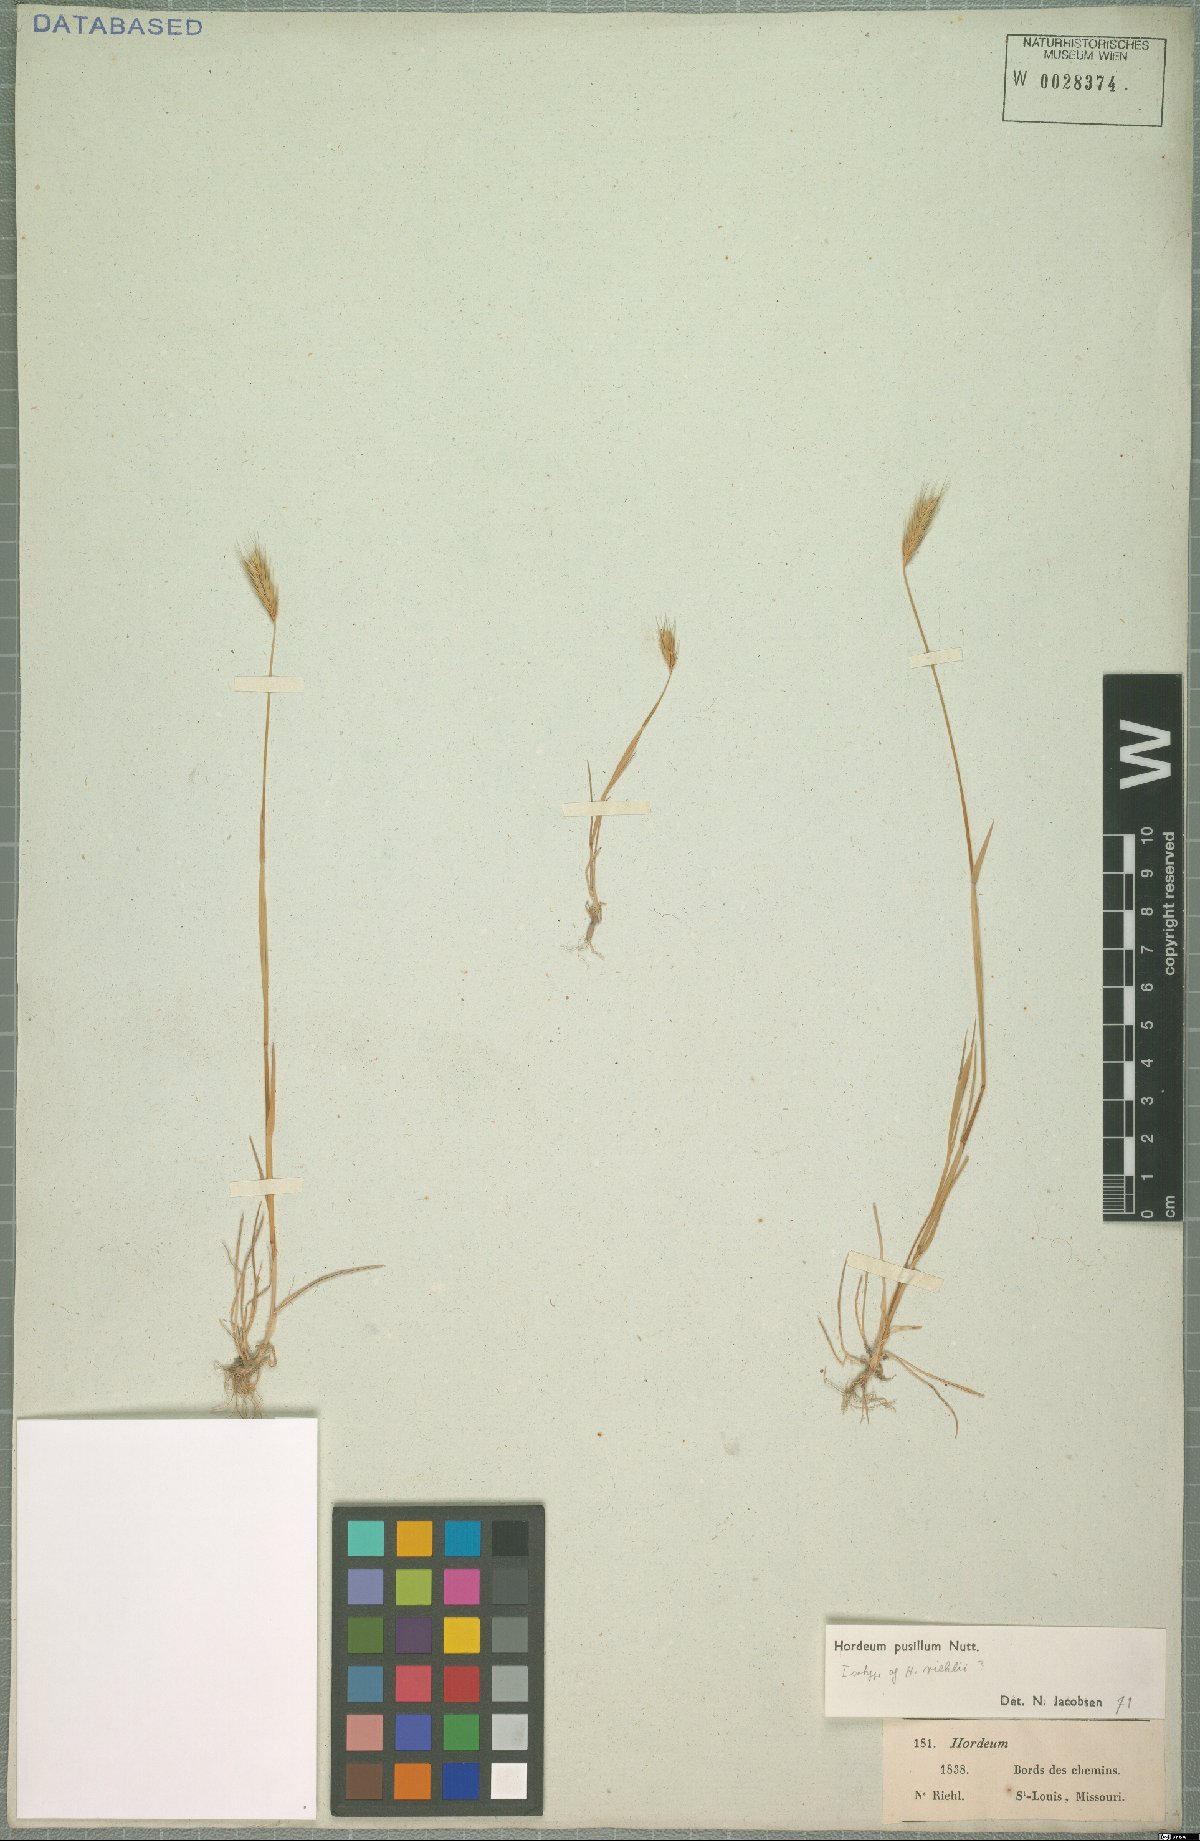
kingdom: Plantae
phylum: Tracheophyta
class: Liliopsida
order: Poales
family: Poaceae
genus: Hordeum
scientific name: Hordeum pusillum
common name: Little barley
